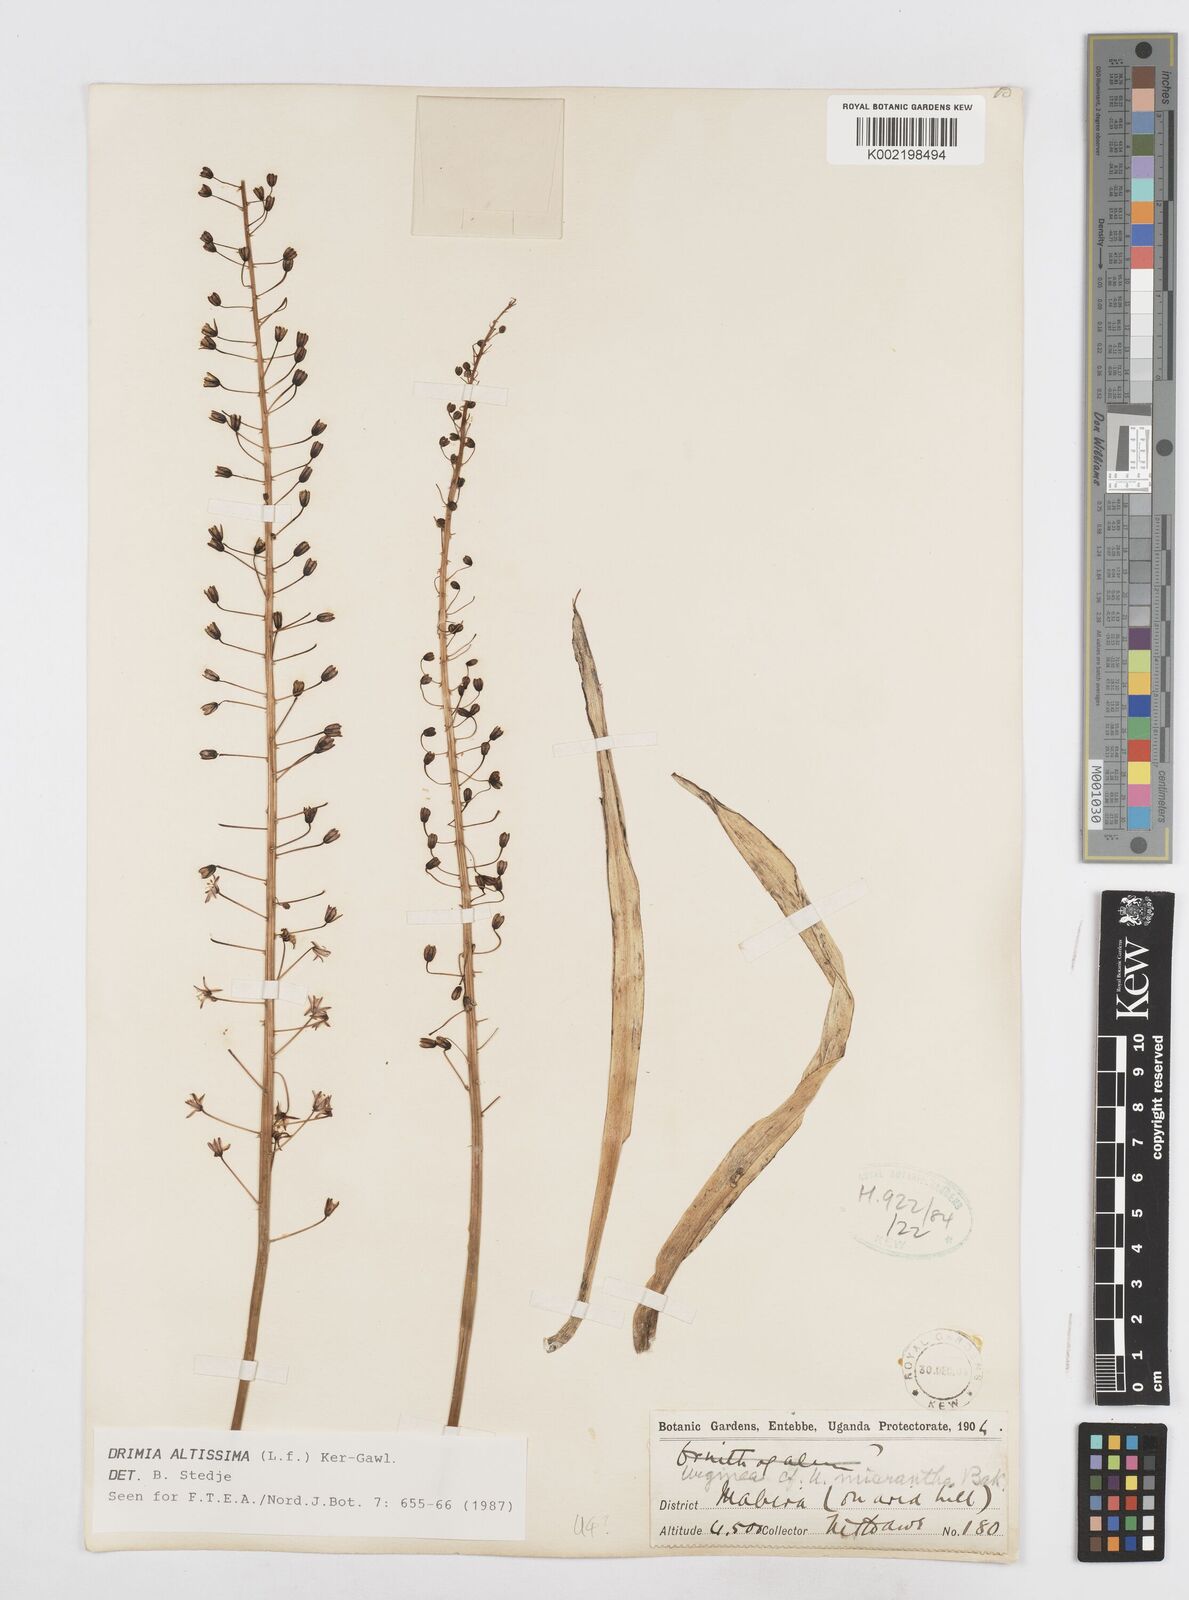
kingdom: Plantae
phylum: Tracheophyta
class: Liliopsida
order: Asparagales
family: Asparagaceae
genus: Drimia
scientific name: Drimia altissima
